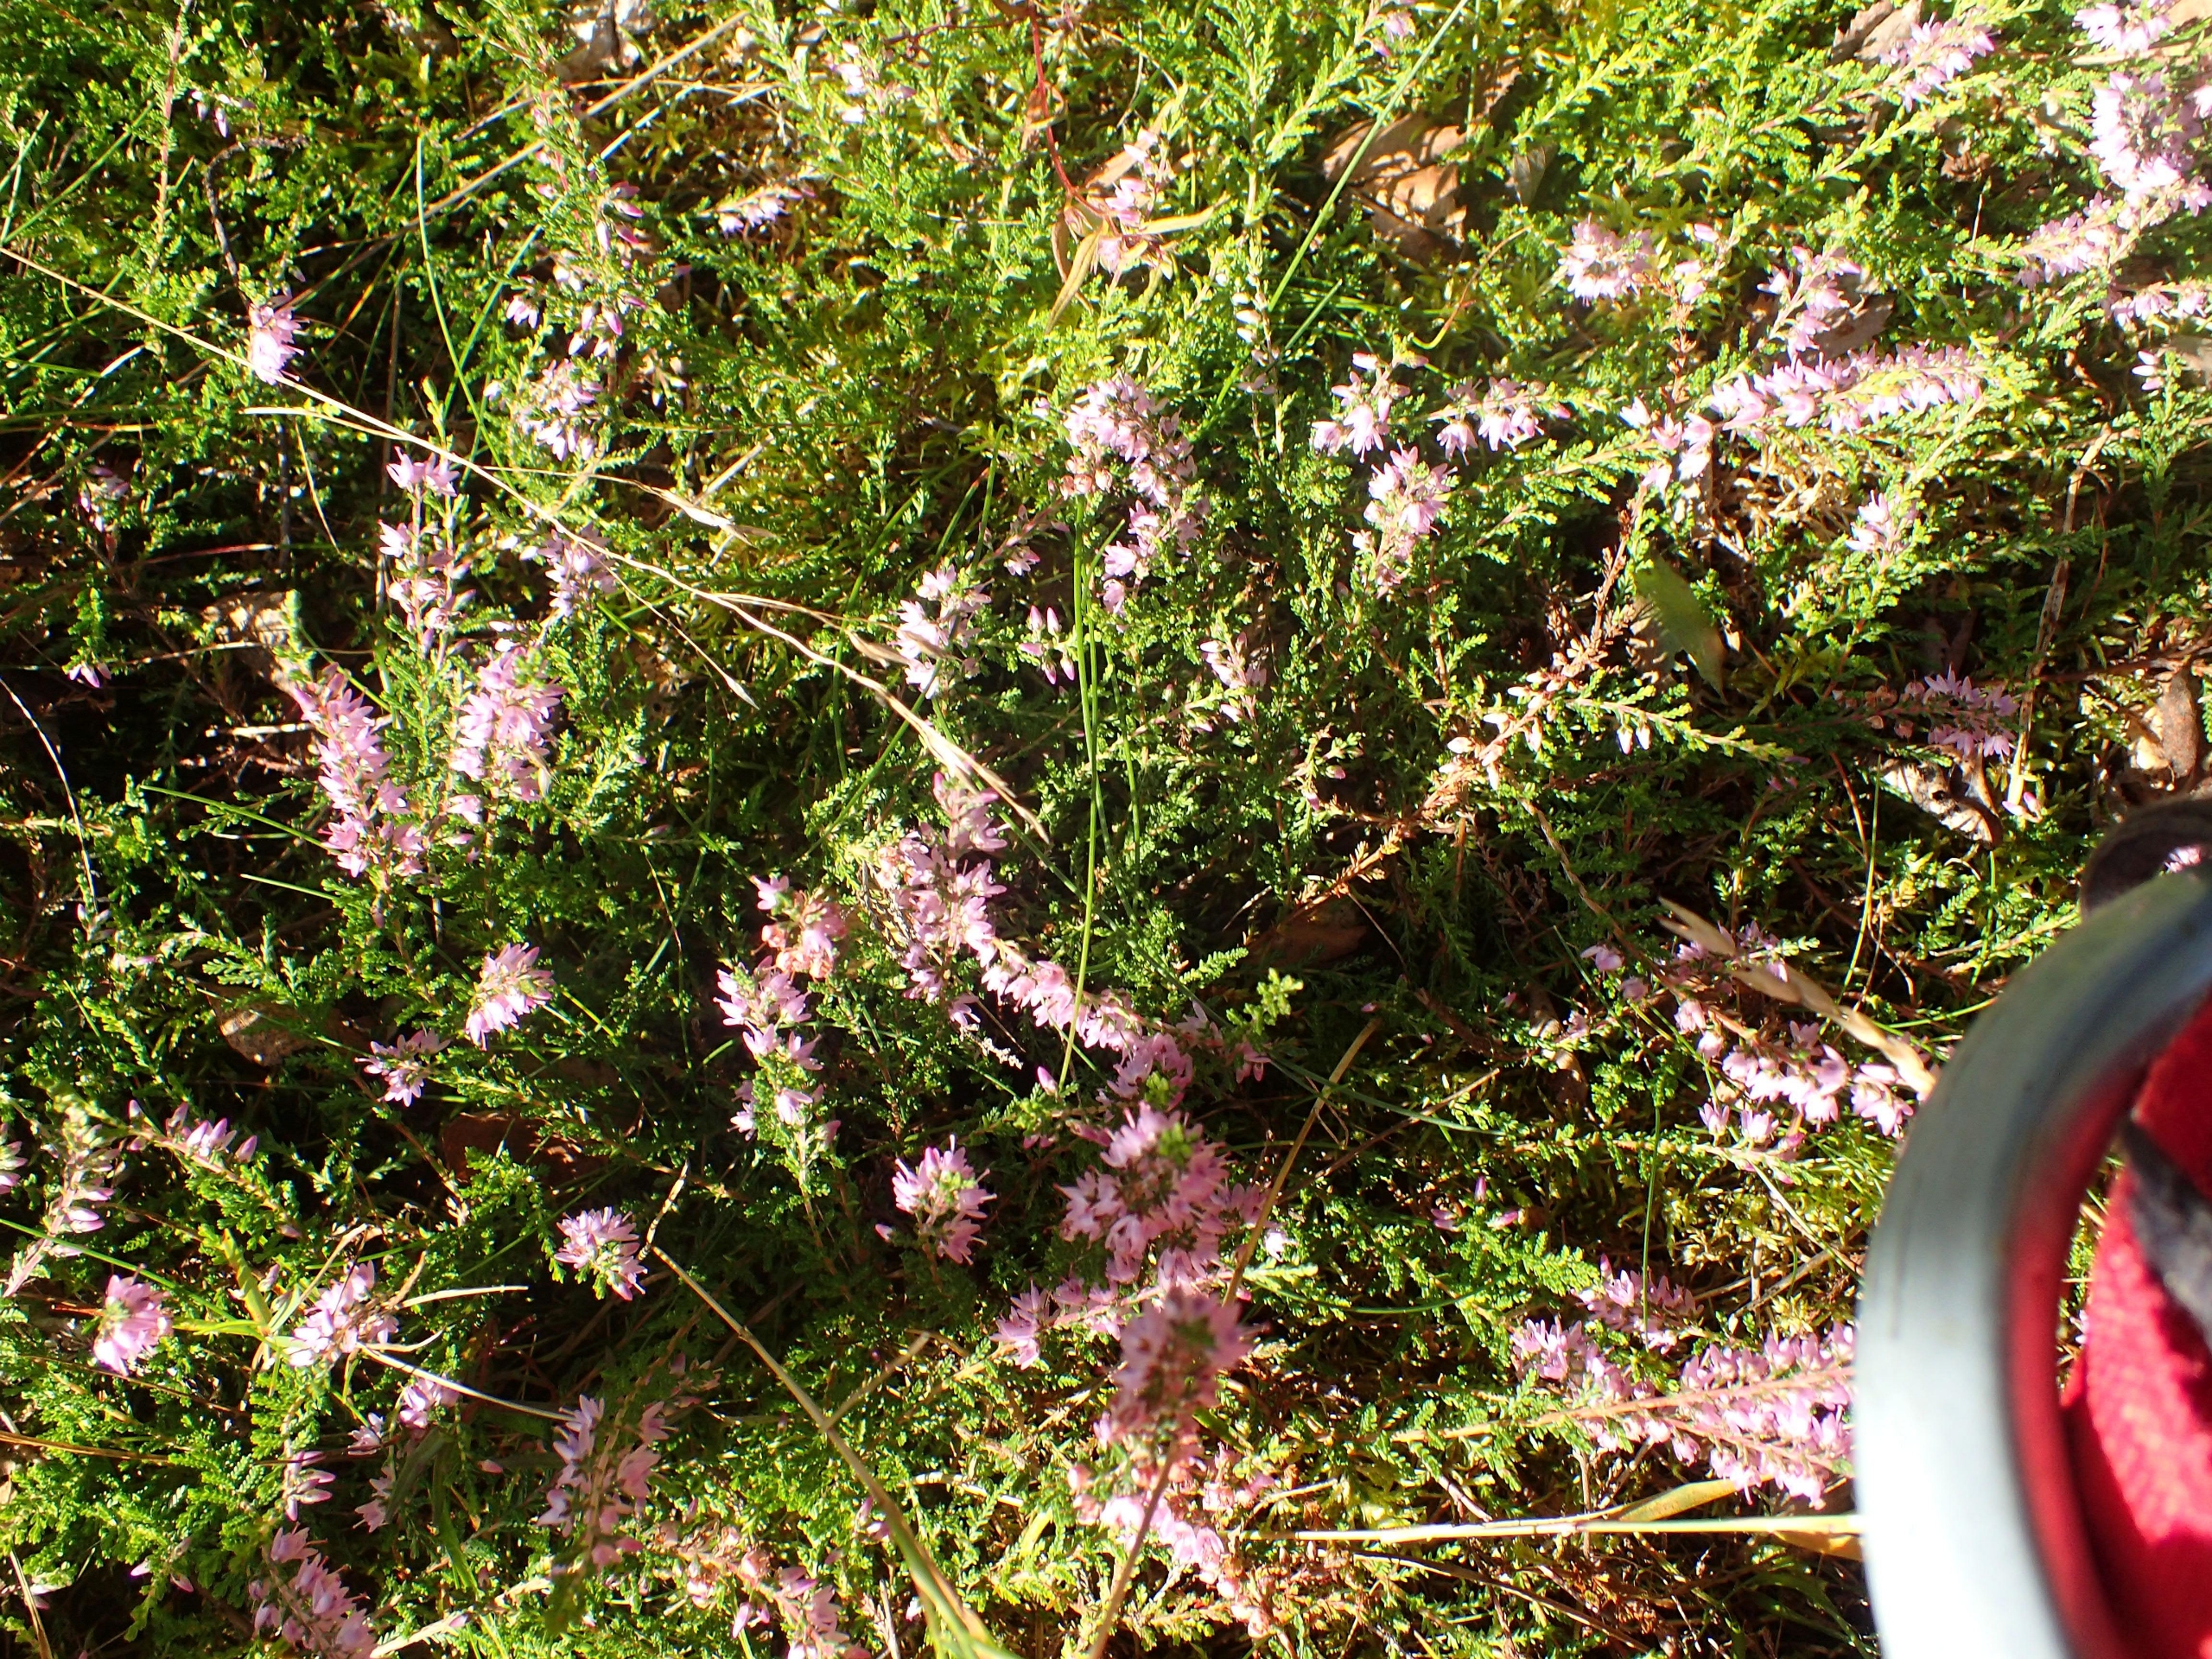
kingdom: Plantae
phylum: Tracheophyta
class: Magnoliopsida
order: Ericales
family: Ericaceae
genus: Calluna
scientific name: Calluna vulgaris
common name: Hedelyng
